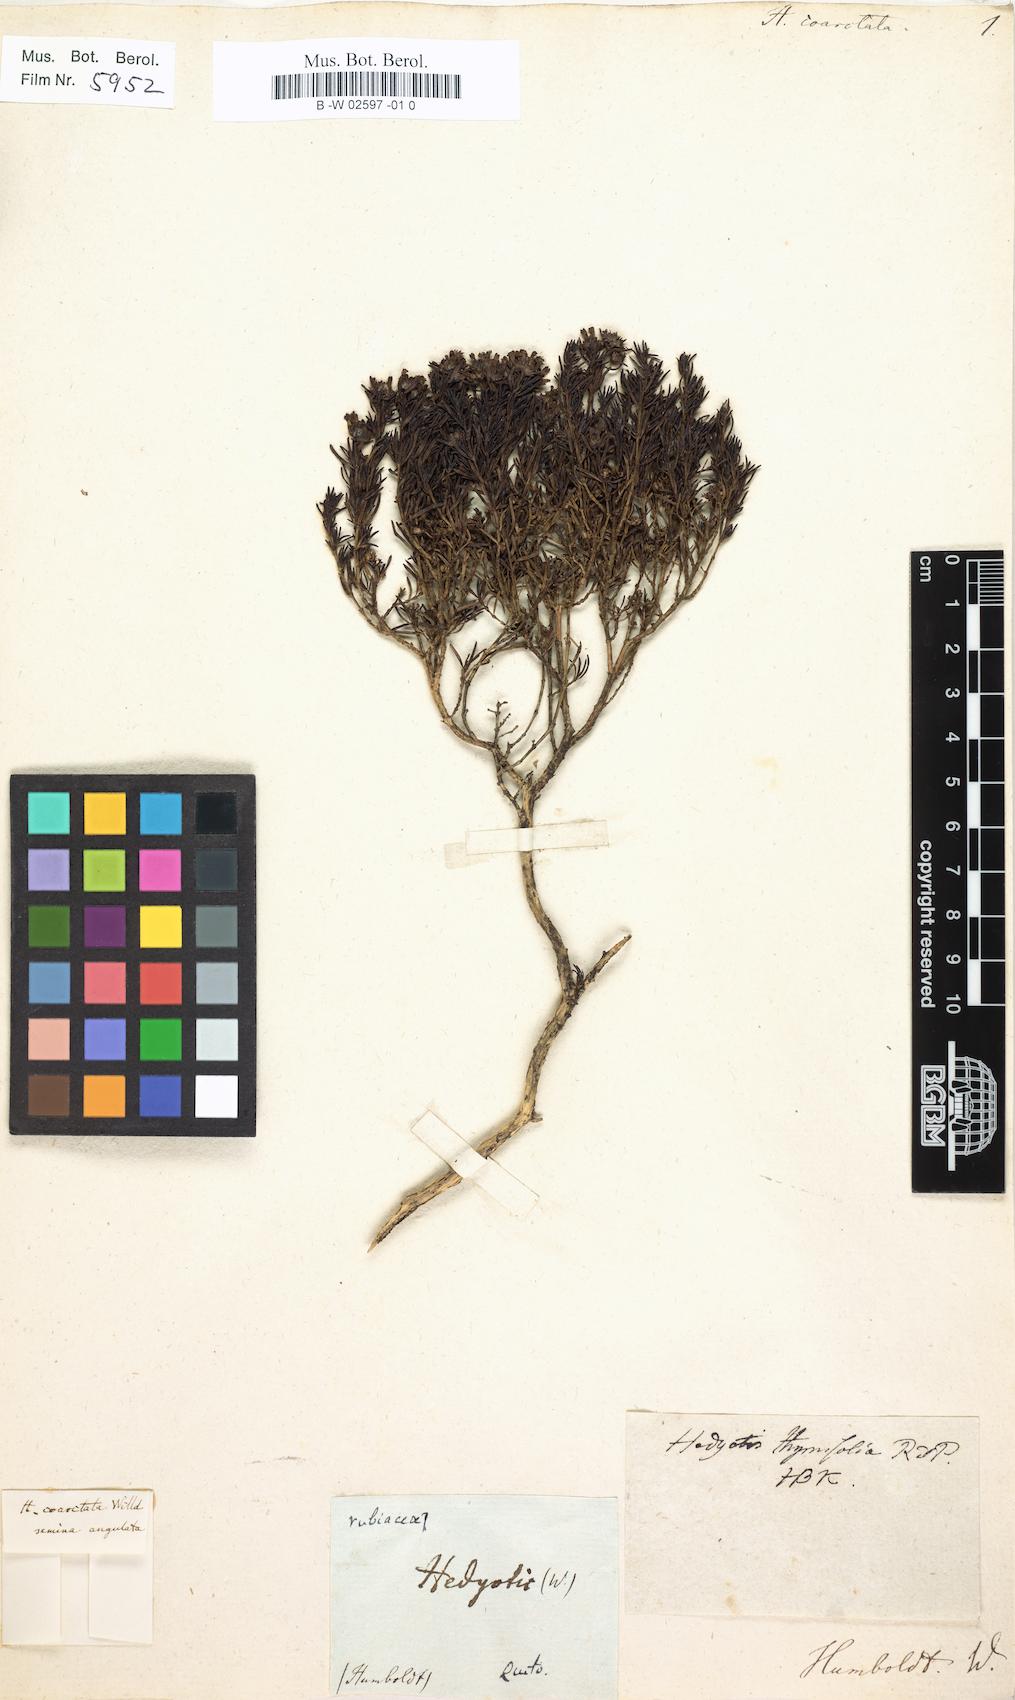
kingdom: Plantae
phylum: Tracheophyta
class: Magnoliopsida
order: Gentianales
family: Rubiaceae
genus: Arcytophyllum
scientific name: Arcytophyllum thymifolium
